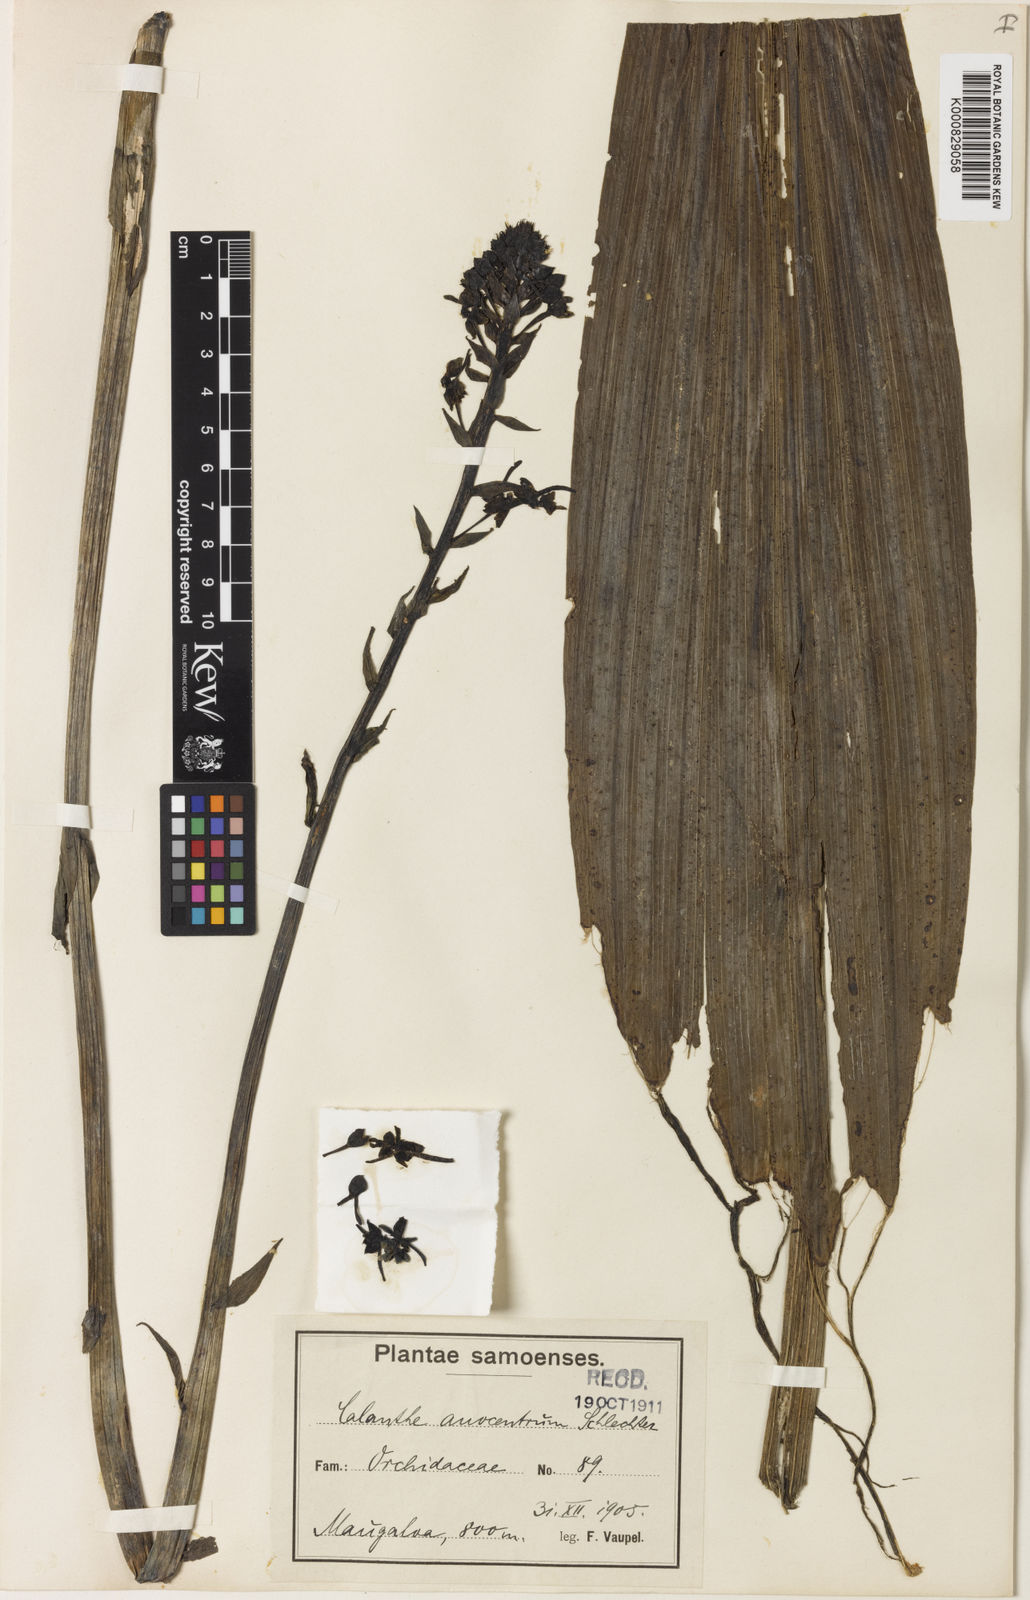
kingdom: Plantae
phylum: Tracheophyta
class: Liliopsida
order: Asparagales
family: Orchidaceae
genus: Calanthe
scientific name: Calanthe alta
